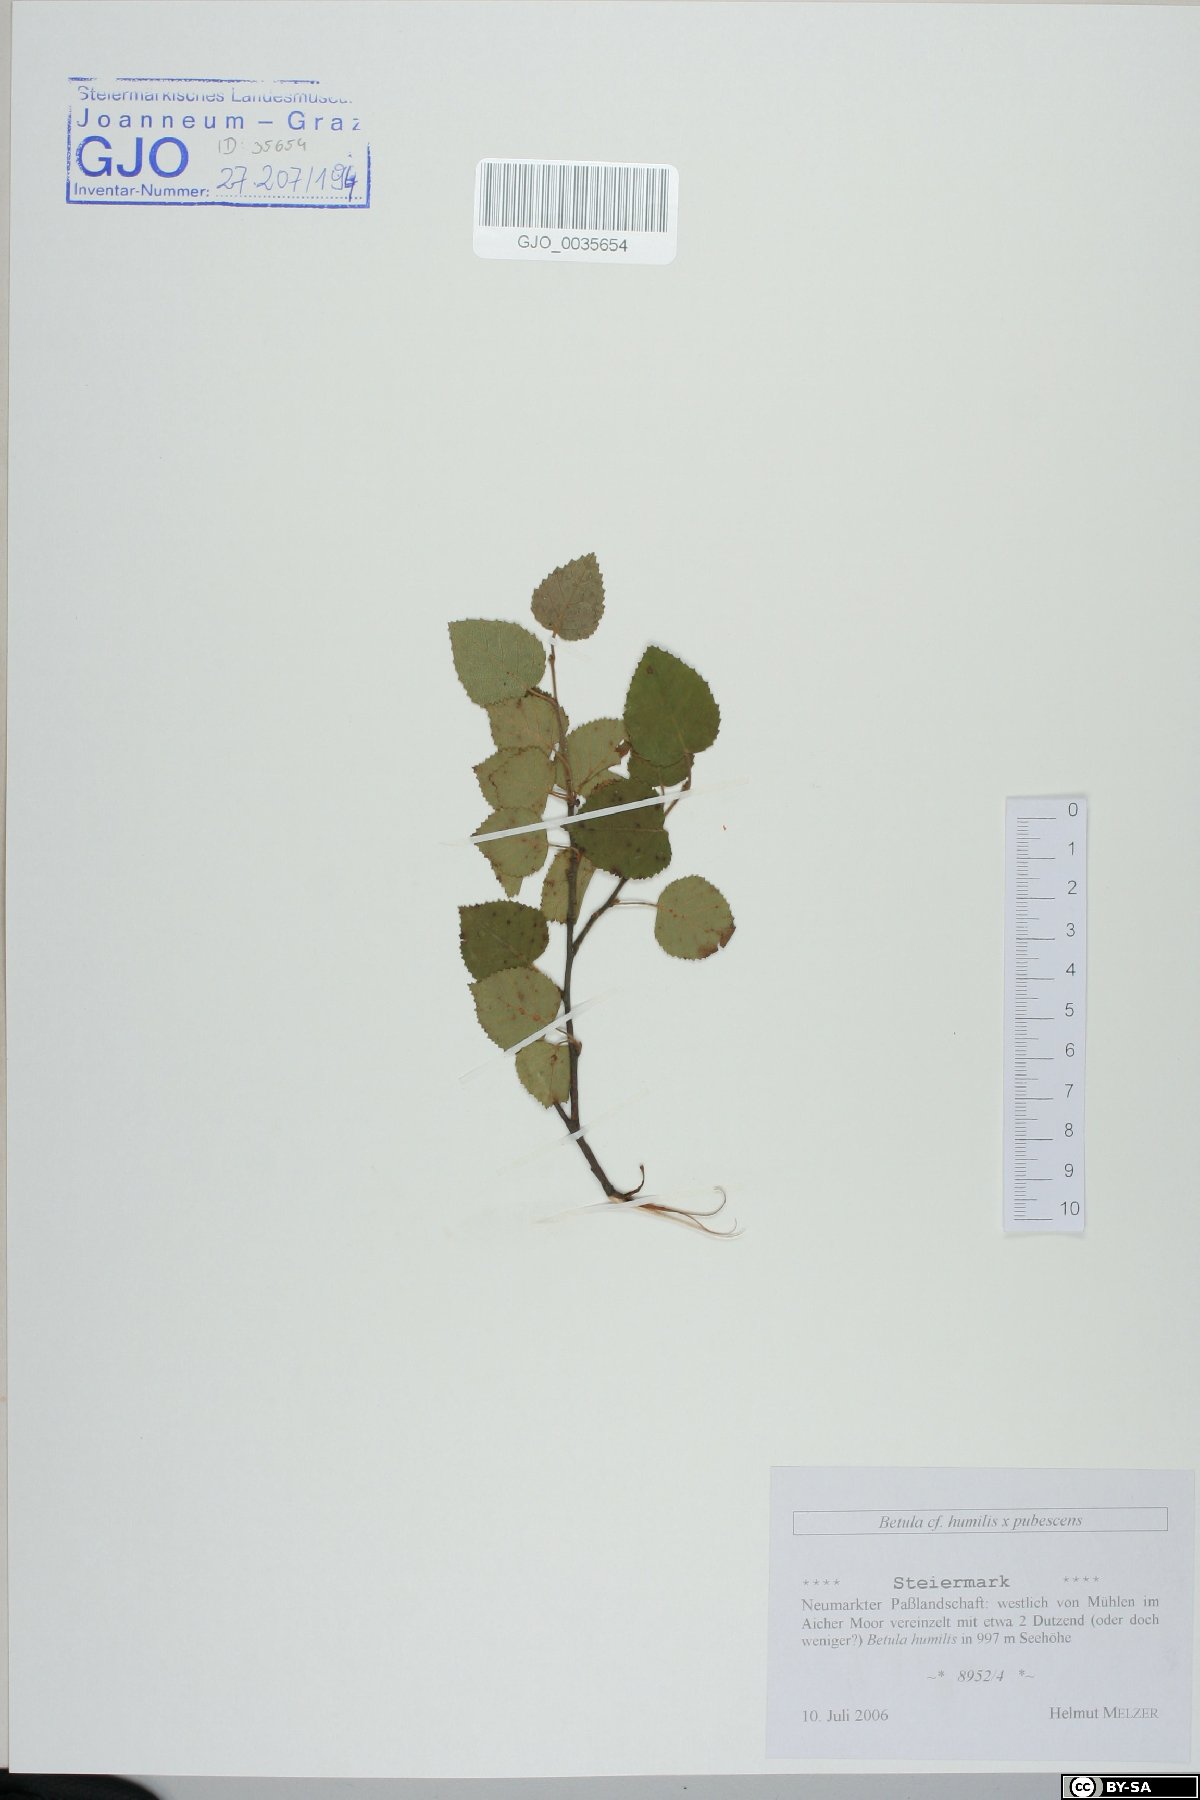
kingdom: Plantae
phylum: Tracheophyta
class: Magnoliopsida
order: Fagales
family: Betulaceae
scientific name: Betulaceae
